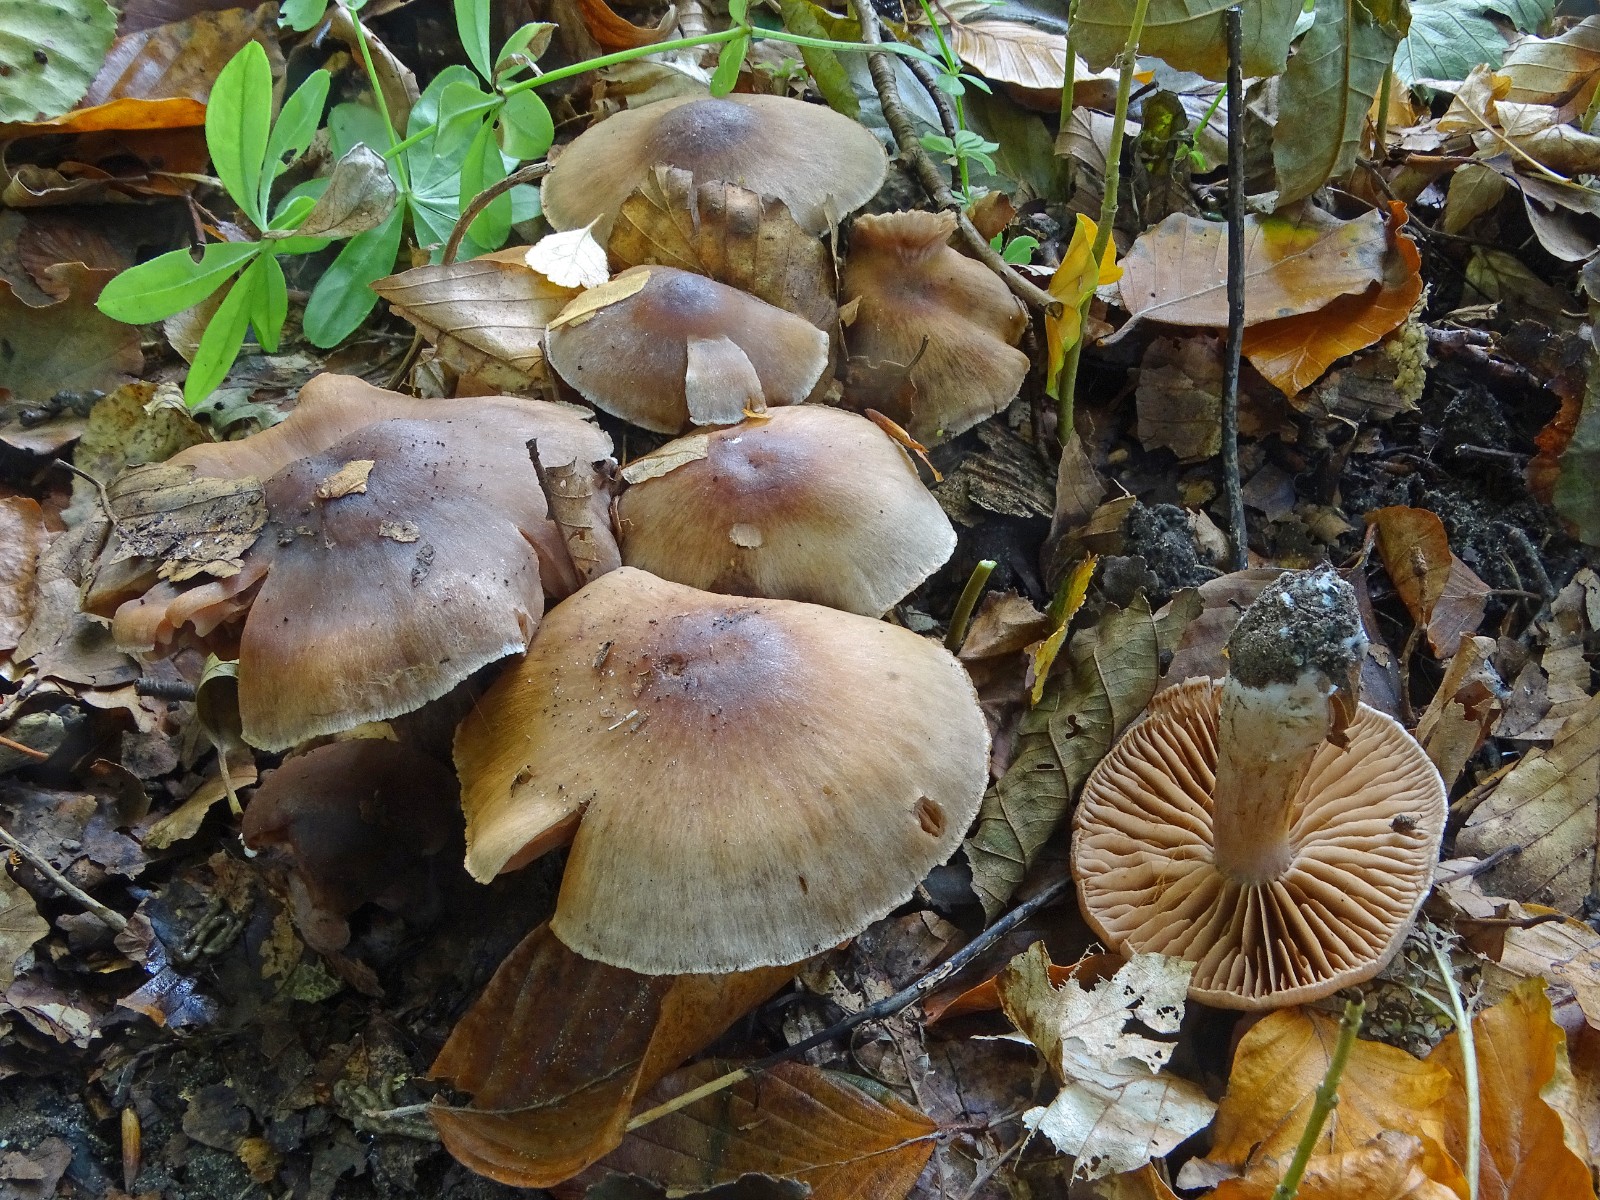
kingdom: Fungi
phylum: Basidiomycota
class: Agaricomycetes
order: Agaricales
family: Cortinariaceae
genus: Cortinarius
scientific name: Cortinarius hinnuleus
